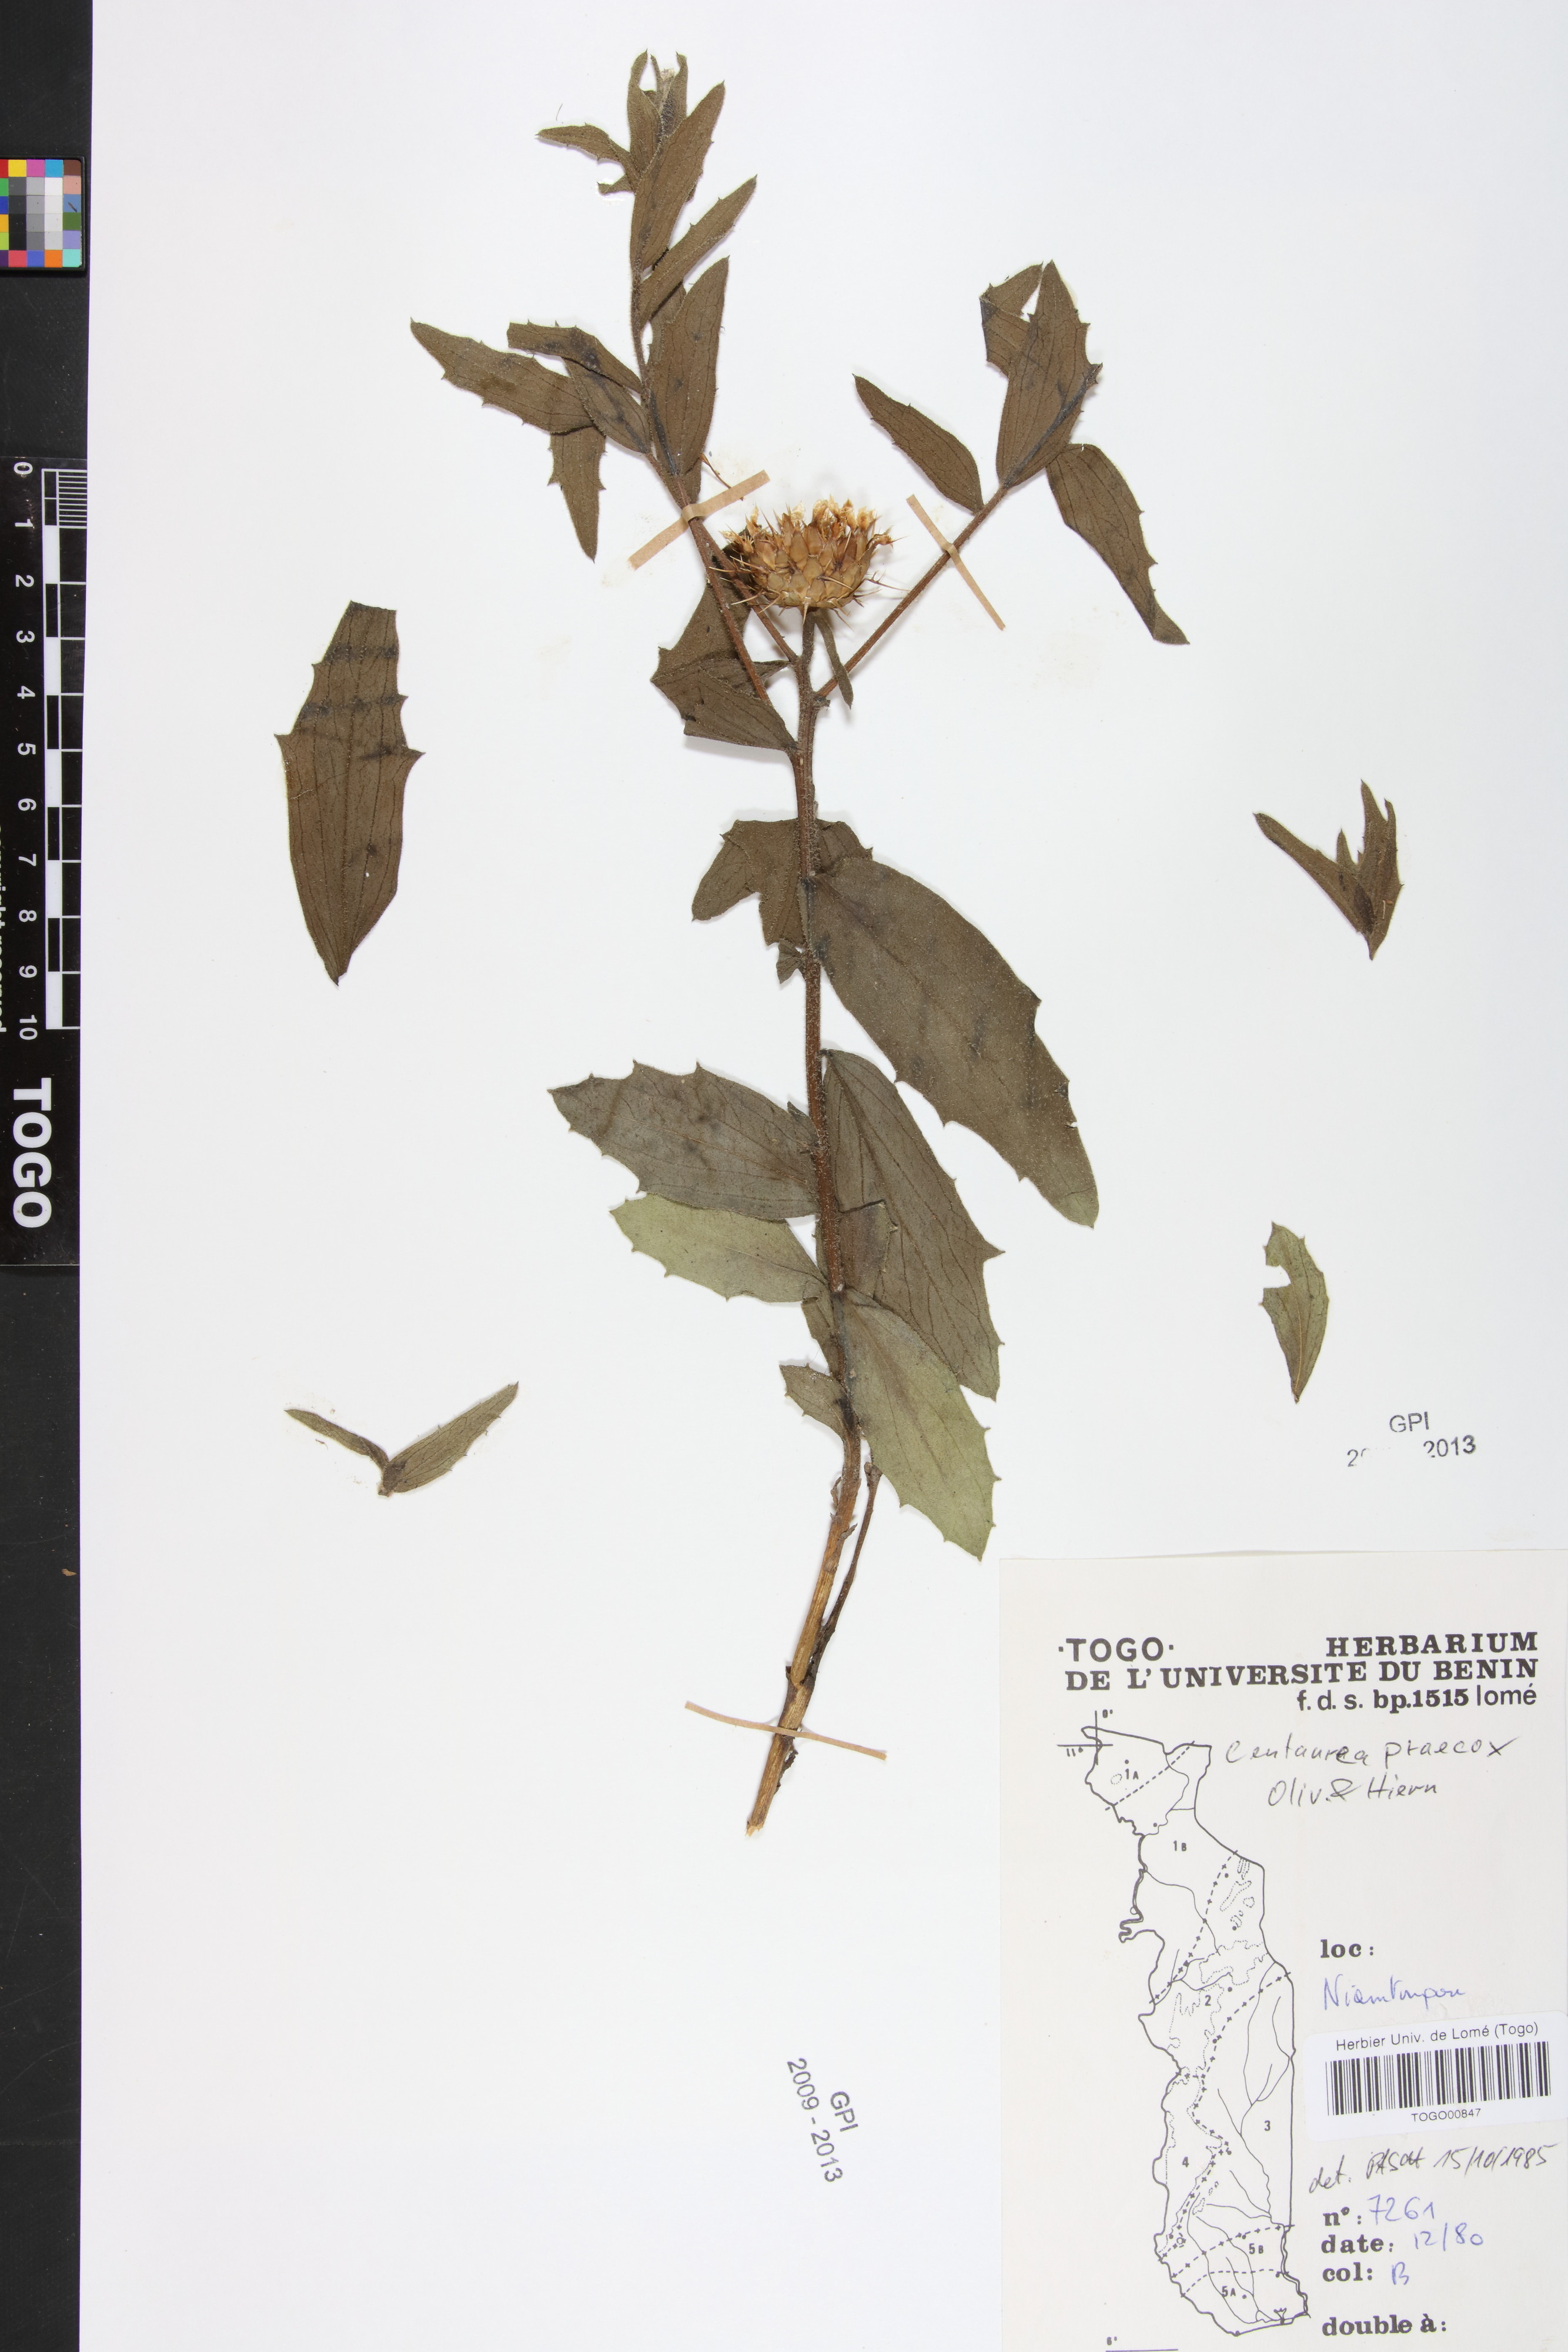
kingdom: Plantae
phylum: Tracheophyta
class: Magnoliopsida
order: Asterales
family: Asteraceae
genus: Centaurea
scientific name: Centaurea praecox
